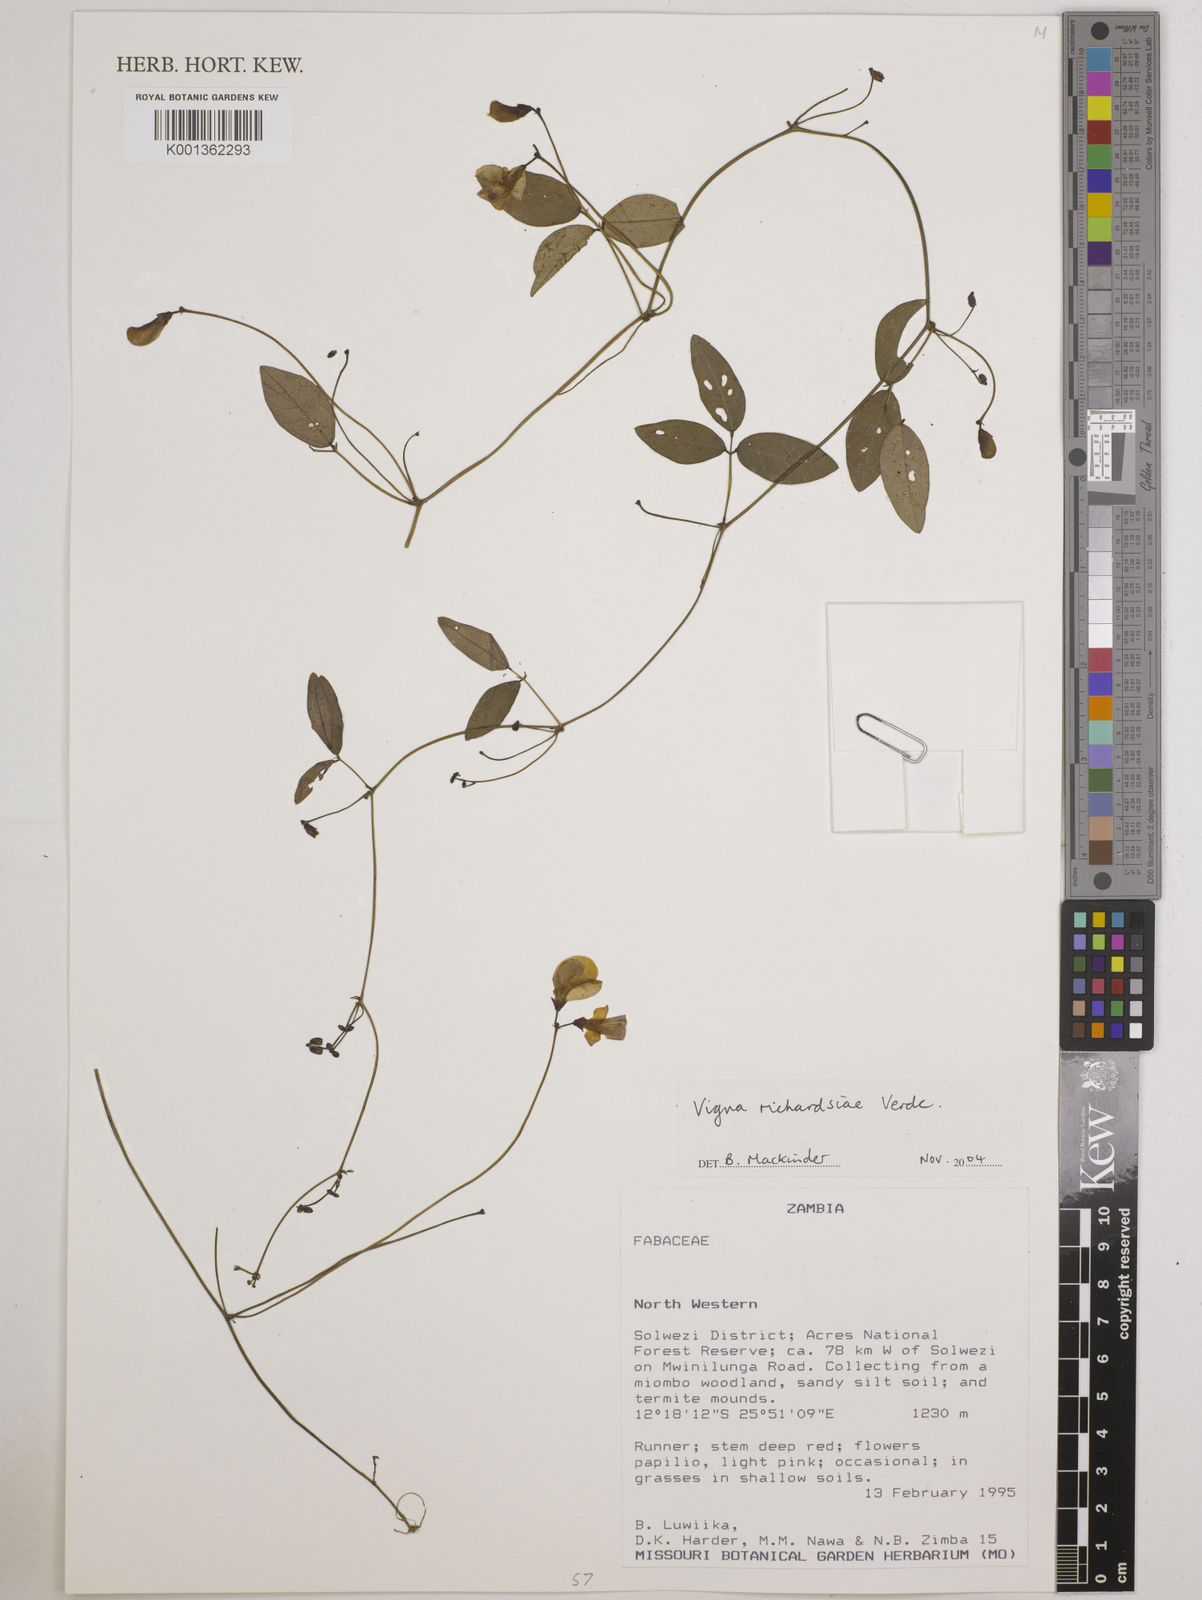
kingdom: Plantae
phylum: Tracheophyta
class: Magnoliopsida
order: Fabales
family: Fabaceae
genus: Vigna
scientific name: Vigna richardsiae
